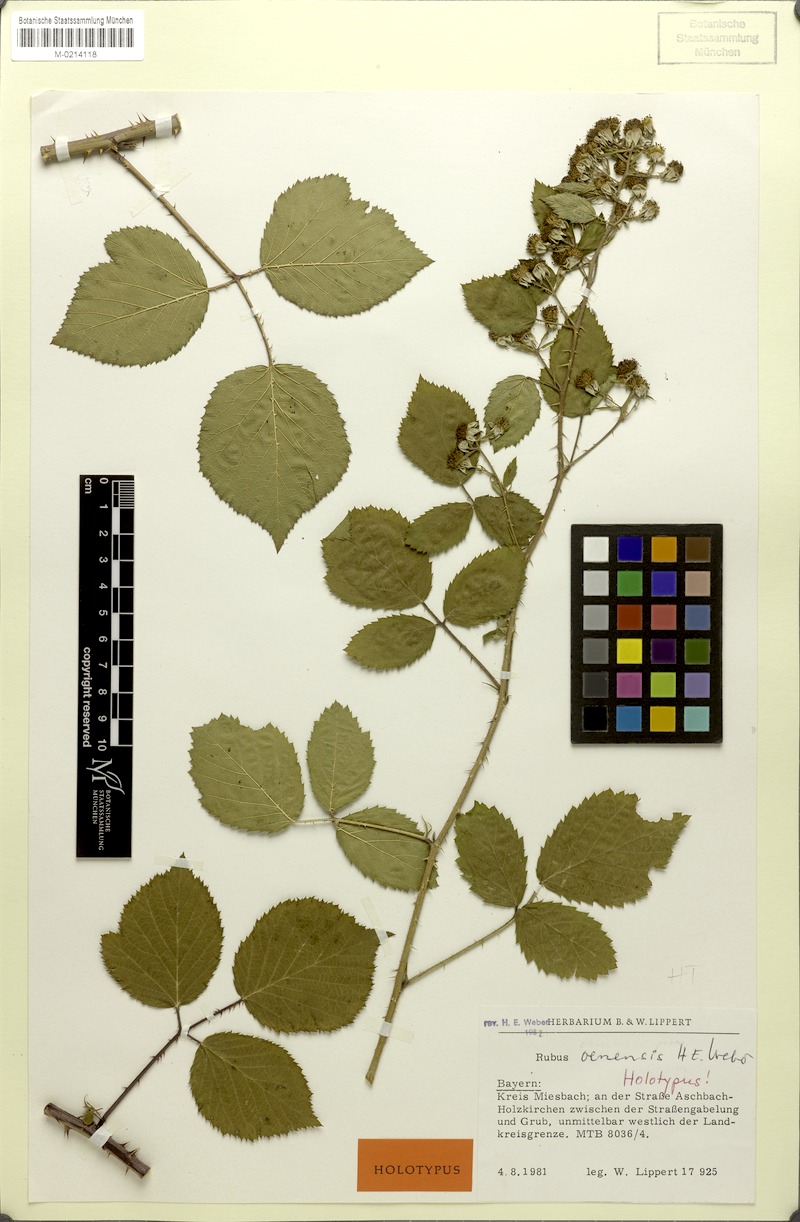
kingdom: Plantae
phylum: Tracheophyta
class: Magnoliopsida
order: Rosales
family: Rosaceae
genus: Rubus
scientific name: Rubus oenensis
